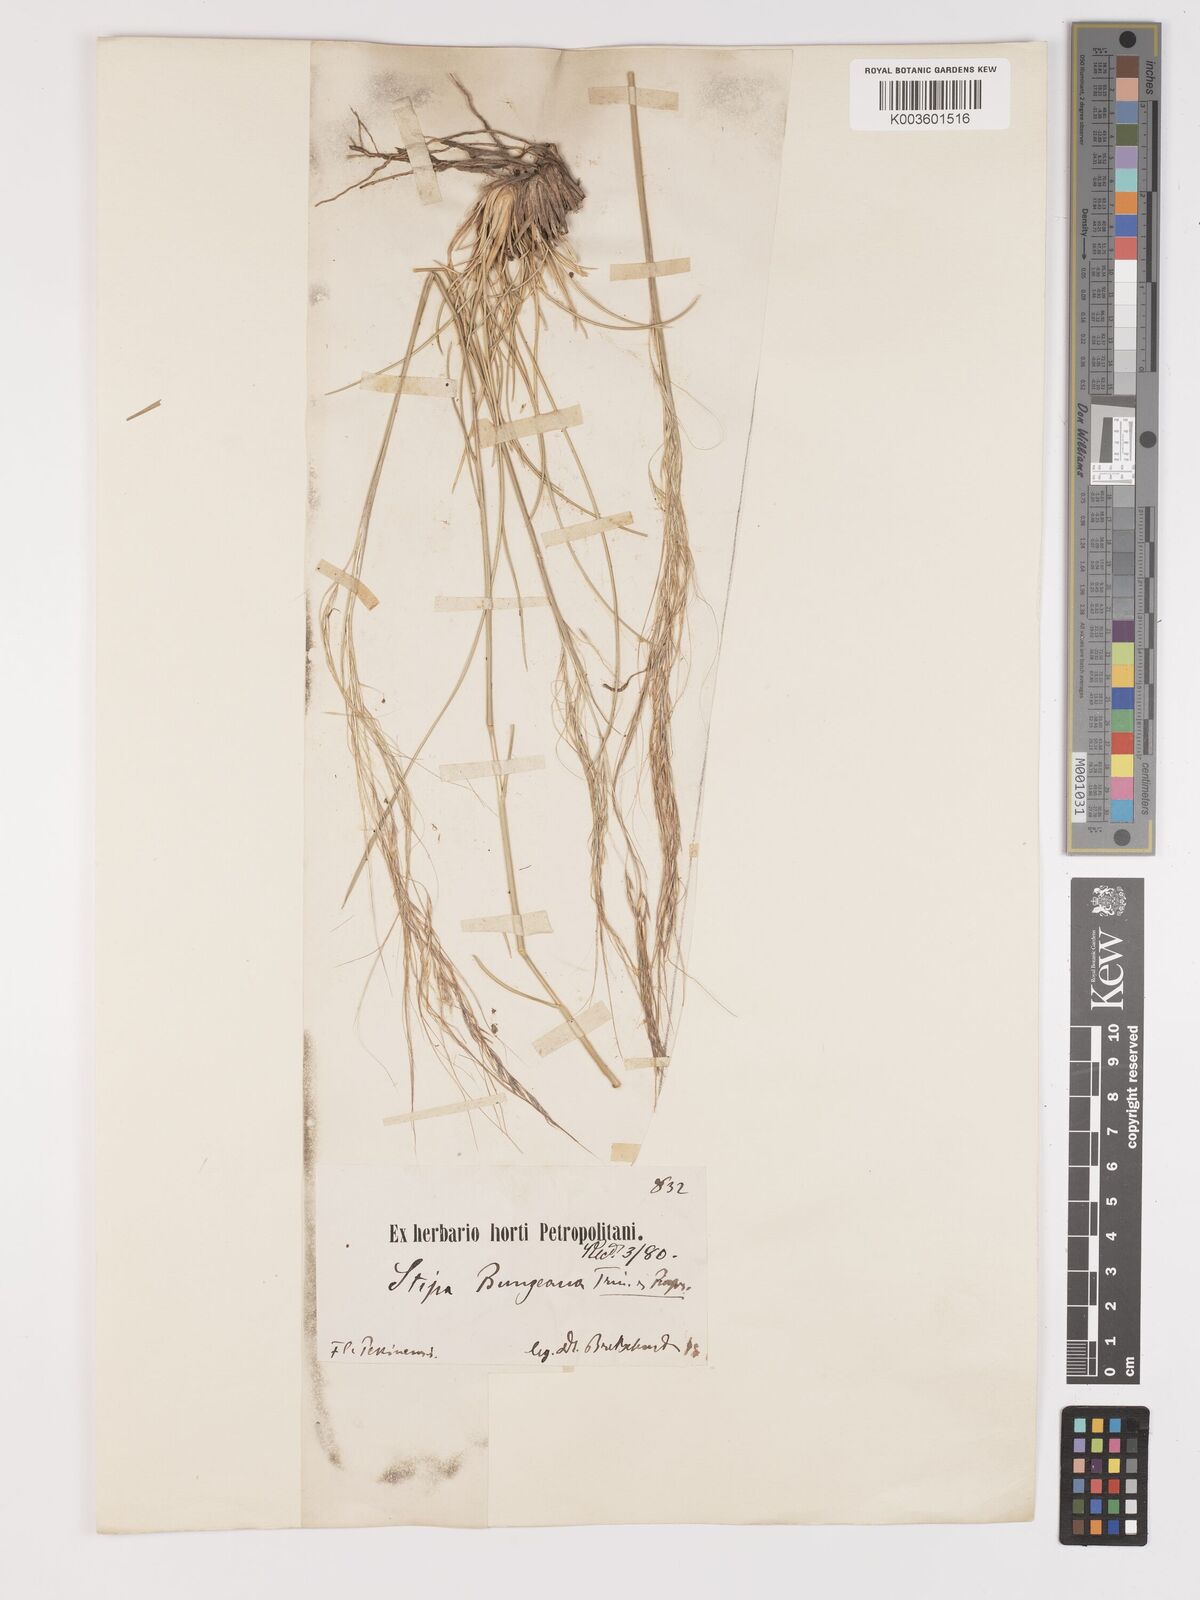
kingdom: Plantae
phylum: Tracheophyta
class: Liliopsida
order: Poales
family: Poaceae
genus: Stipa
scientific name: Stipa
